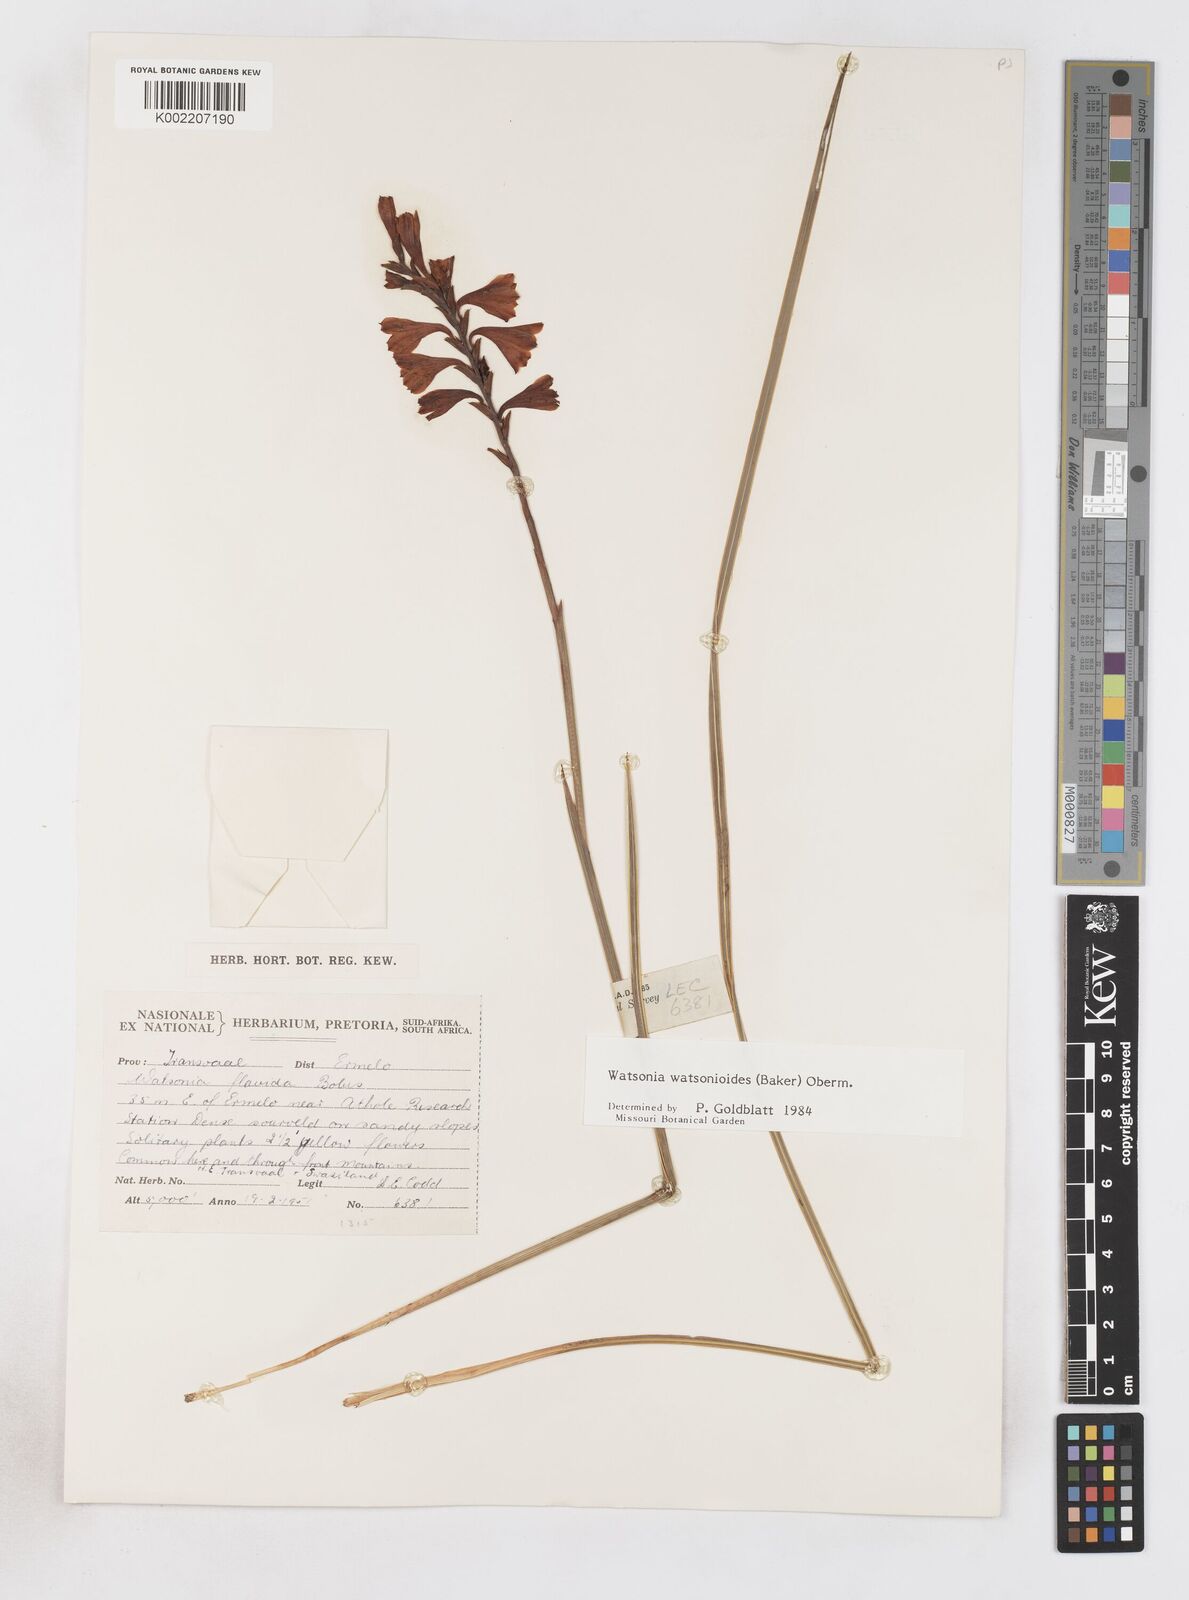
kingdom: Plantae
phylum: Tracheophyta
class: Liliopsida
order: Asparagales
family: Iridaceae
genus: Watsonia
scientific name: Watsonia watsonioides
